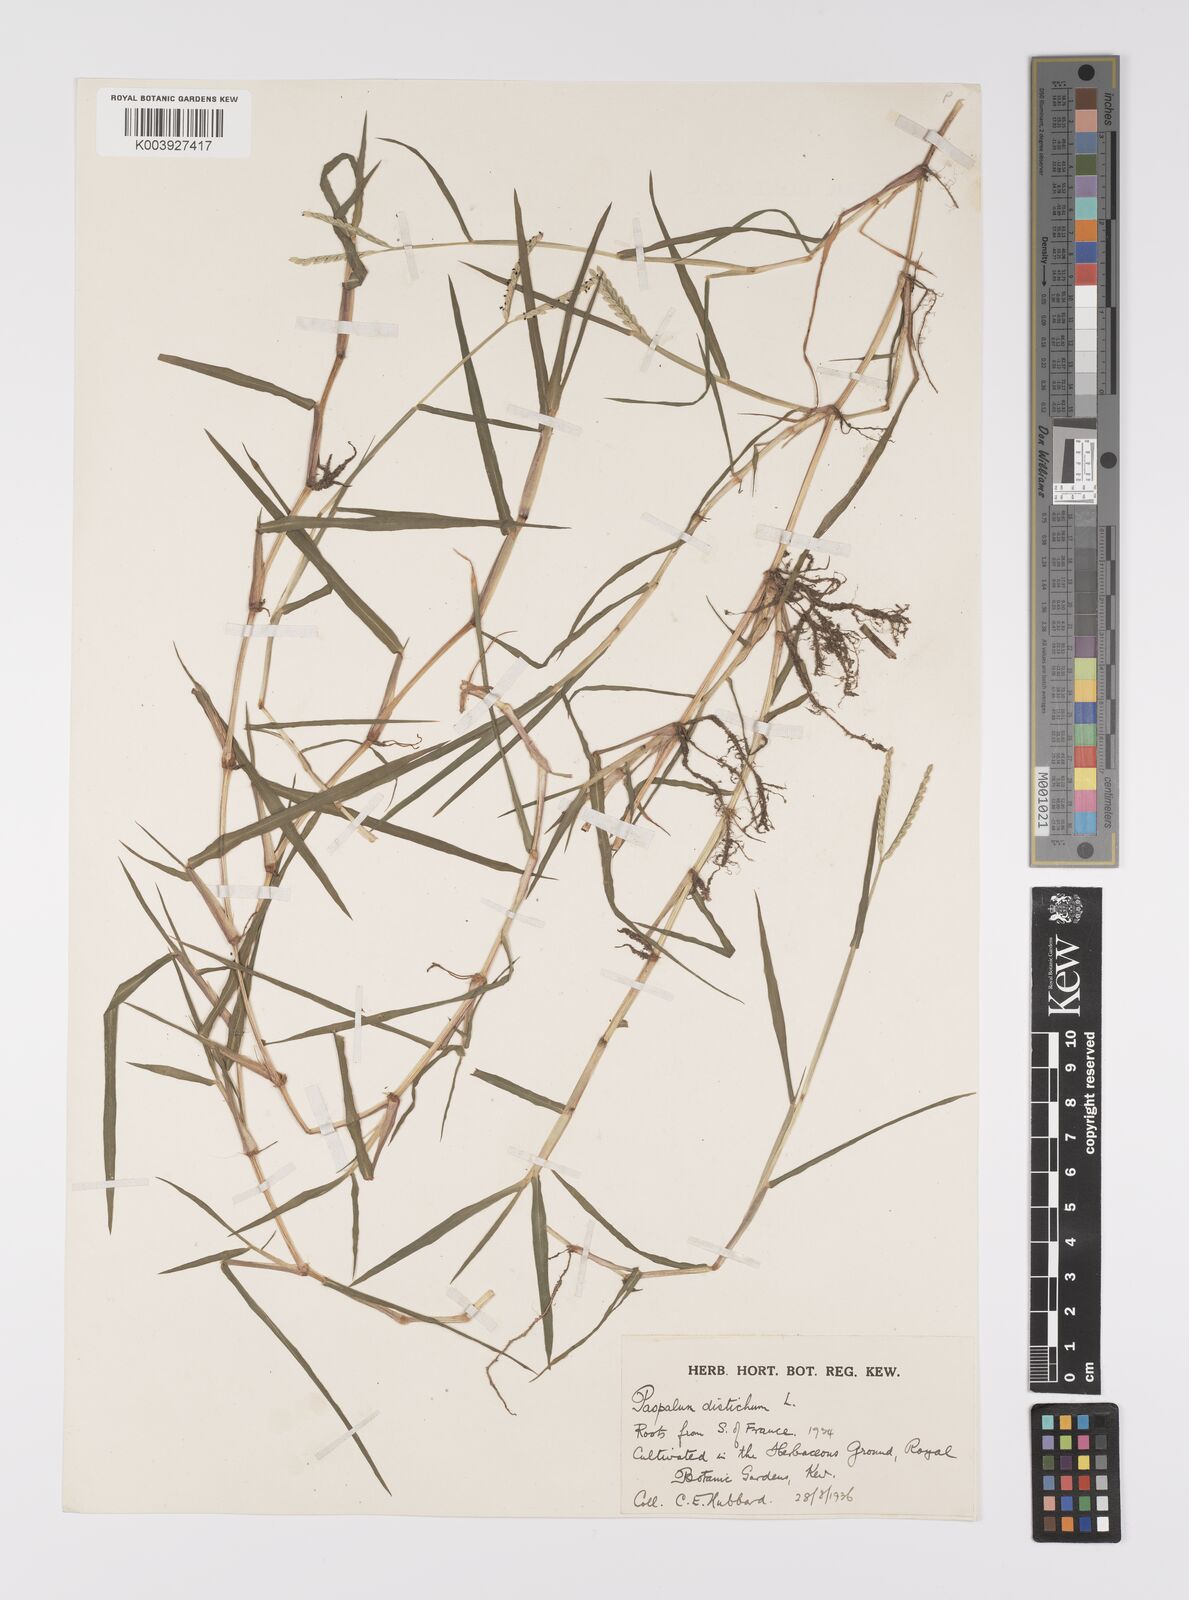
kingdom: Plantae
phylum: Tracheophyta
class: Liliopsida
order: Poales
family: Poaceae
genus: Paspalum
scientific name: Paspalum distichum
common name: Knotgrass
